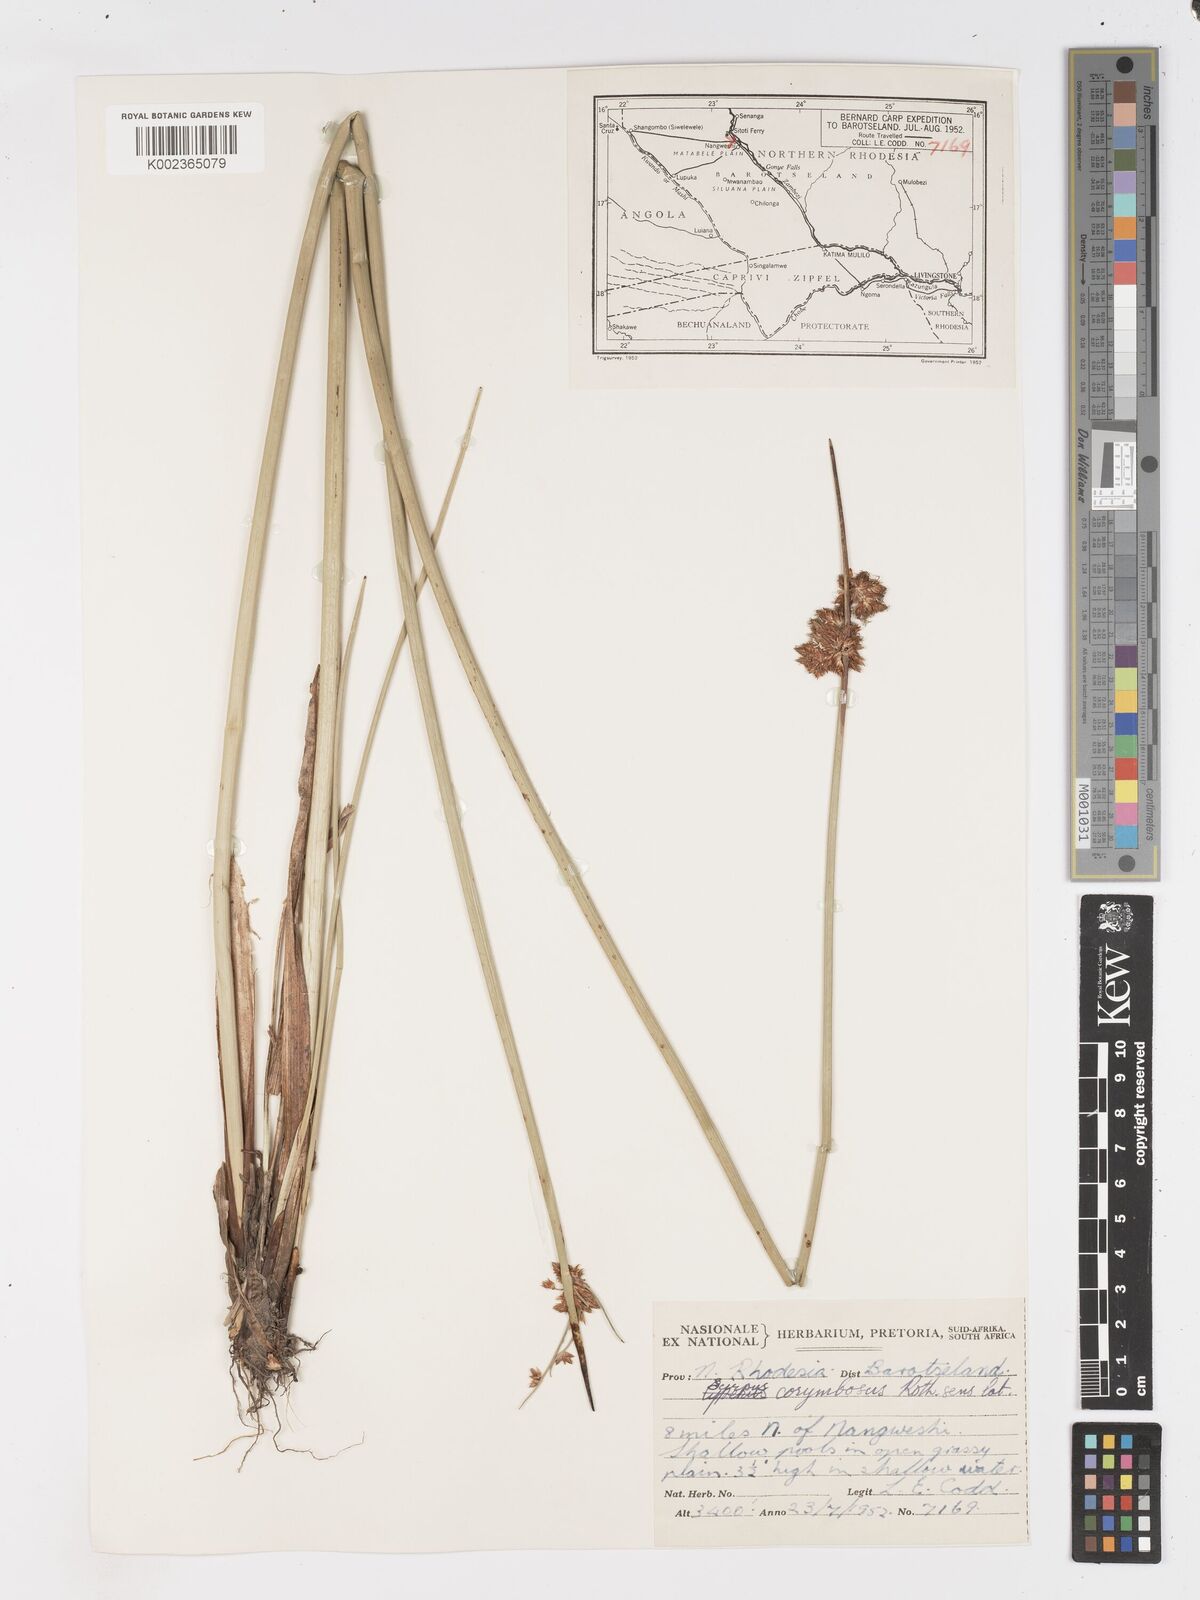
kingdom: Plantae
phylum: Tracheophyta
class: Liliopsida
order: Poales
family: Cyperaceae
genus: Schoenoplectiella
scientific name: Schoenoplectiella corymbosa
